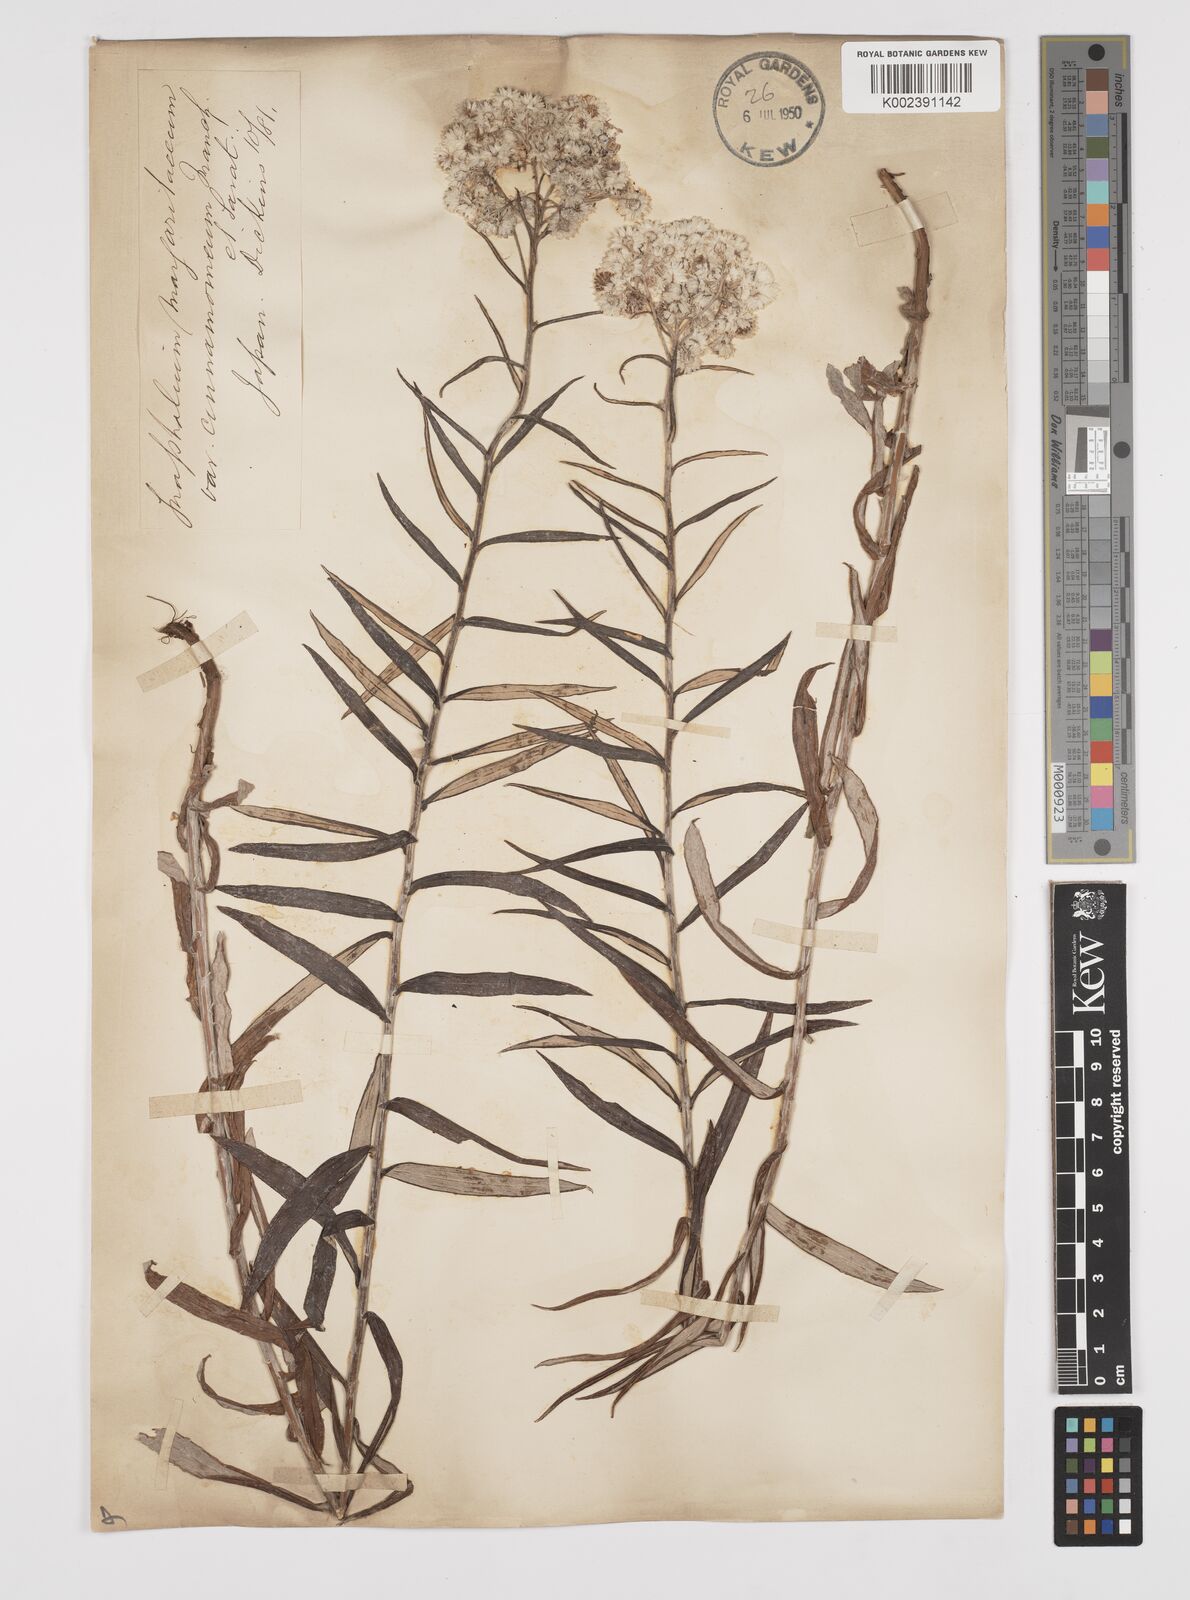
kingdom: Plantae
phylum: Tracheophyta
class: Magnoliopsida
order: Asterales
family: Asteraceae
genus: Anaphalis
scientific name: Anaphalis margaritacea
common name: Pearly everlasting
